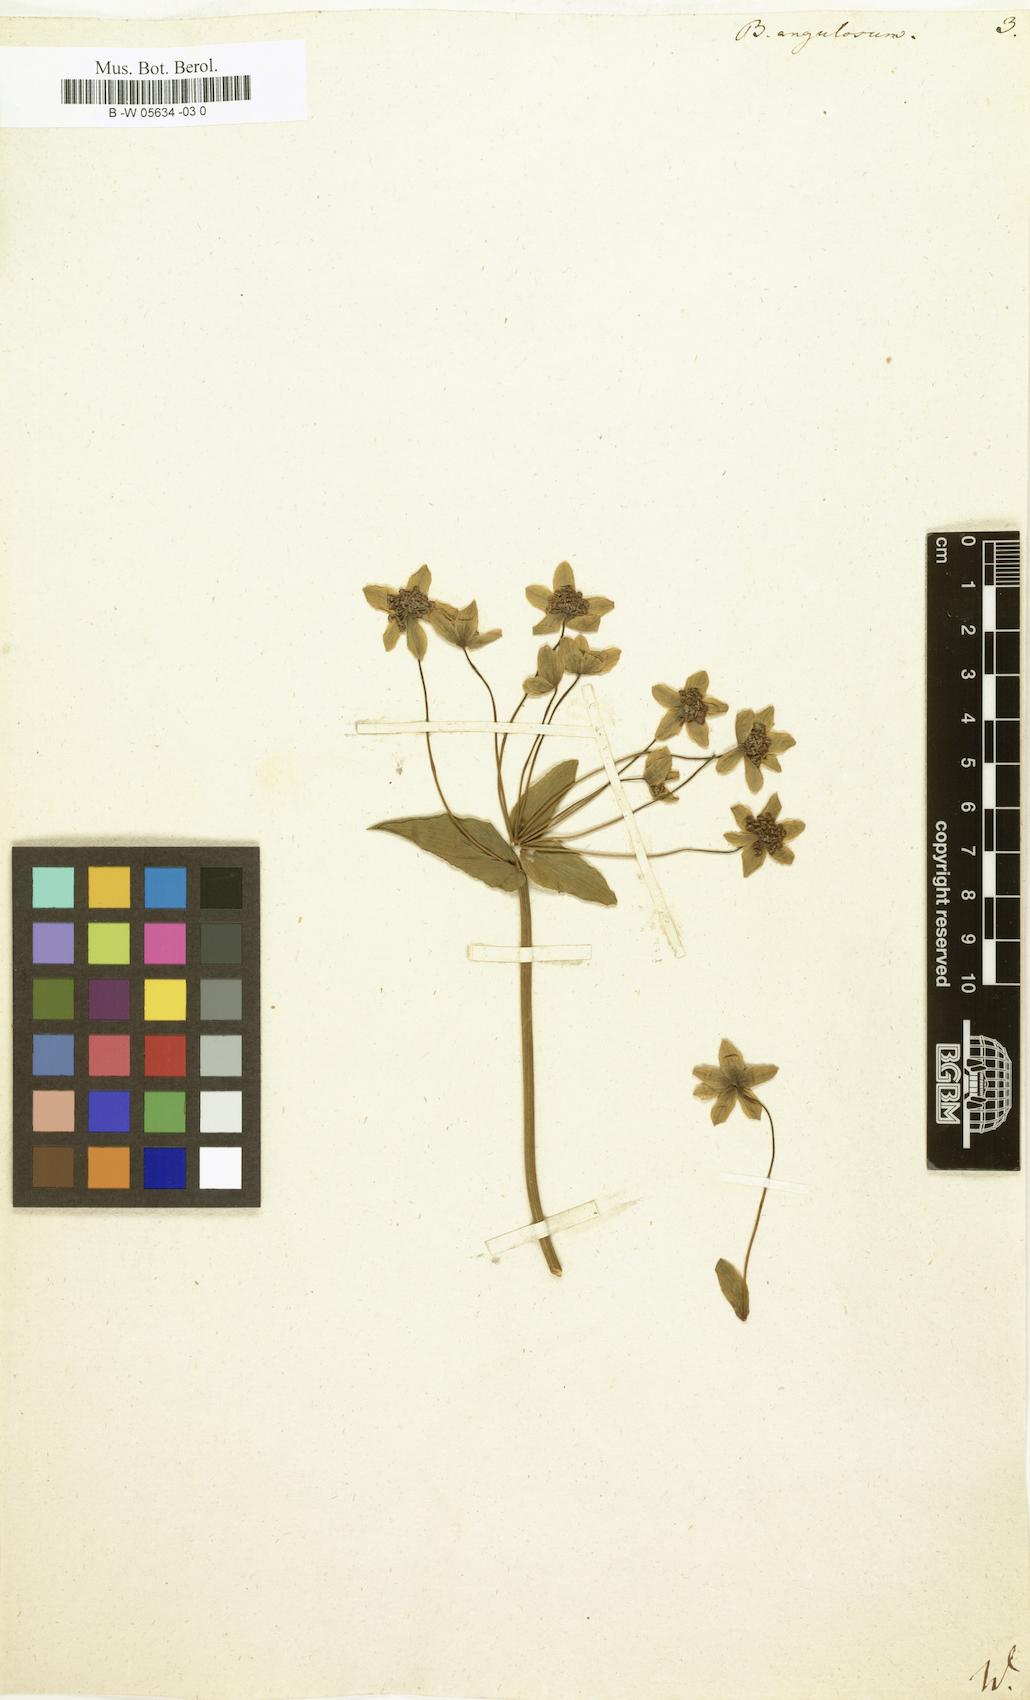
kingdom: Plantae
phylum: Tracheophyta
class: Magnoliopsida
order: Apiales
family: Apiaceae
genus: Bupleurum
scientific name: Bupleurum angulosum
